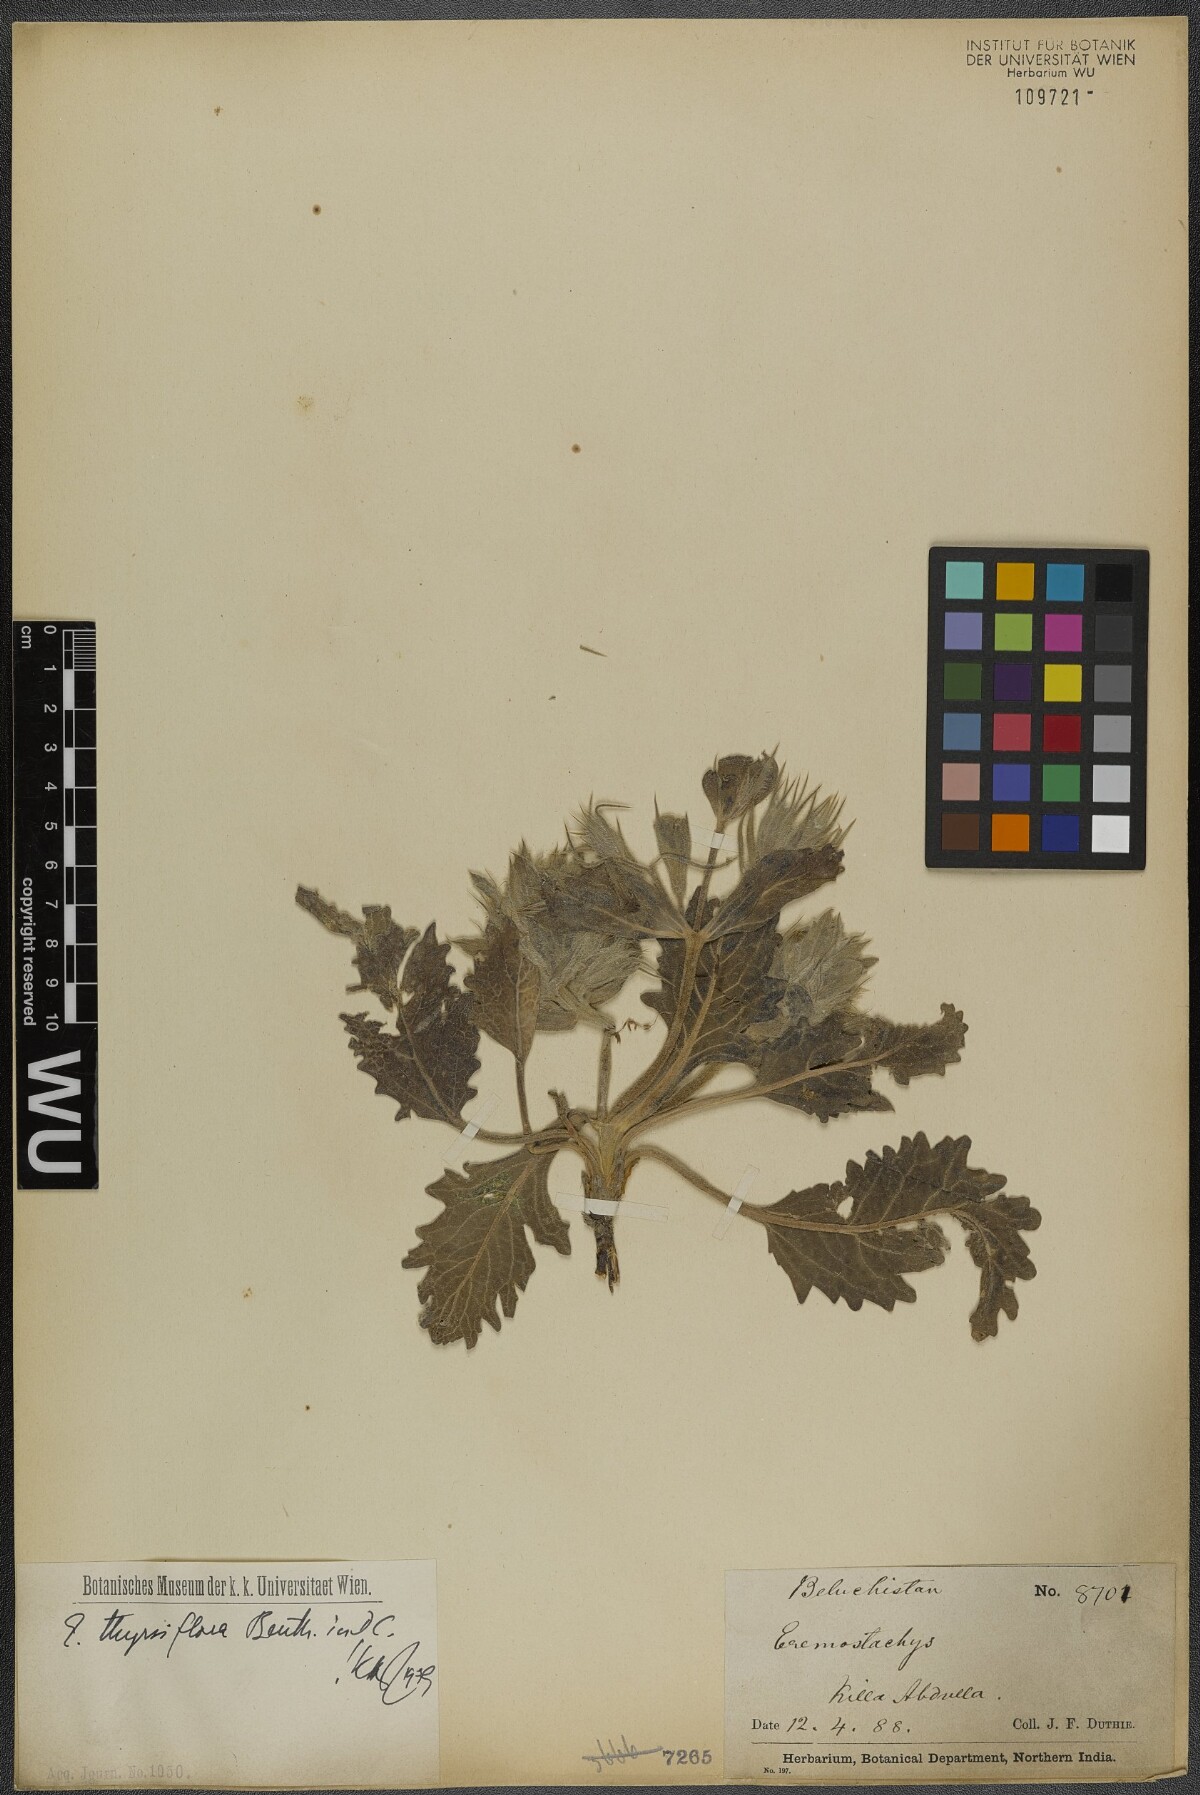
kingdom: Plantae
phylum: Tracheophyta
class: Magnoliopsida
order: Lamiales
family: Lamiaceae
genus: Phlomoides
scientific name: Phlomoides thyrsiflora
